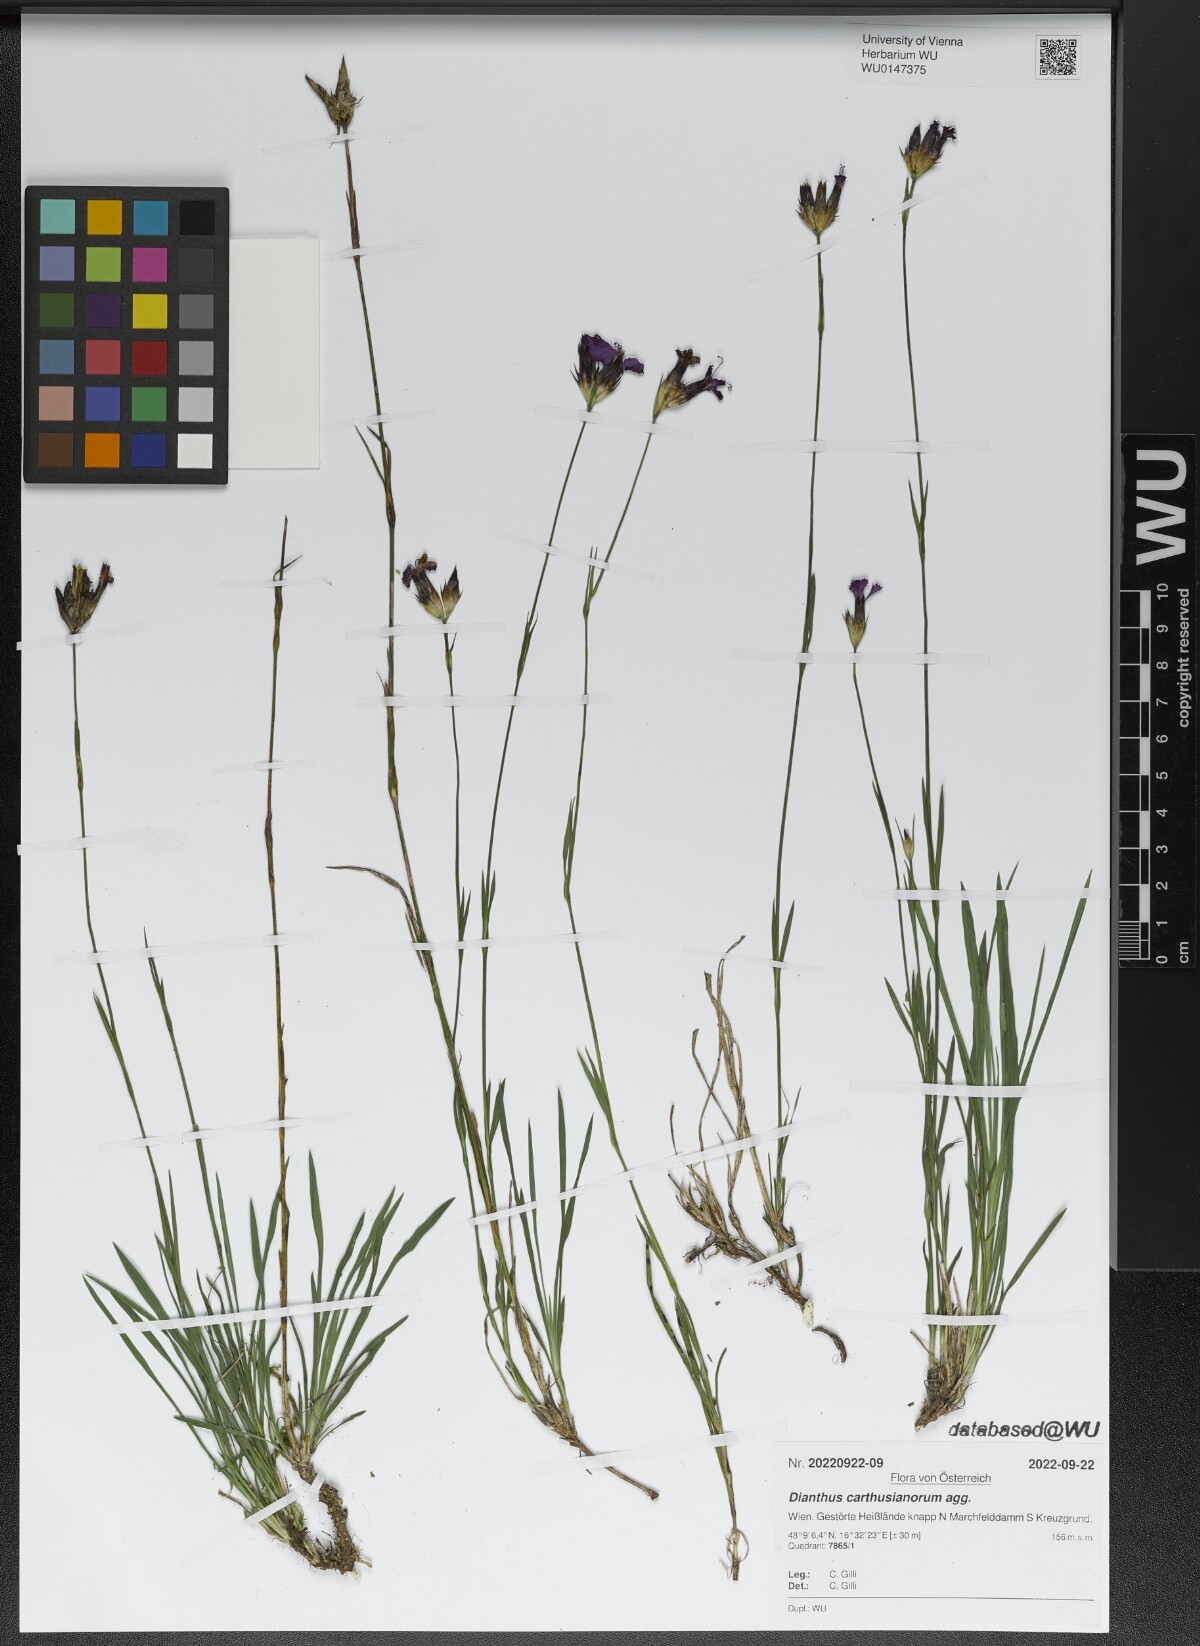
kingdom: Plantae
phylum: Tracheophyta
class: Magnoliopsida
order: Caryophyllales
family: Caryophyllaceae
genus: Dianthus
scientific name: Dianthus carthusianorum
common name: Carthusian pink
